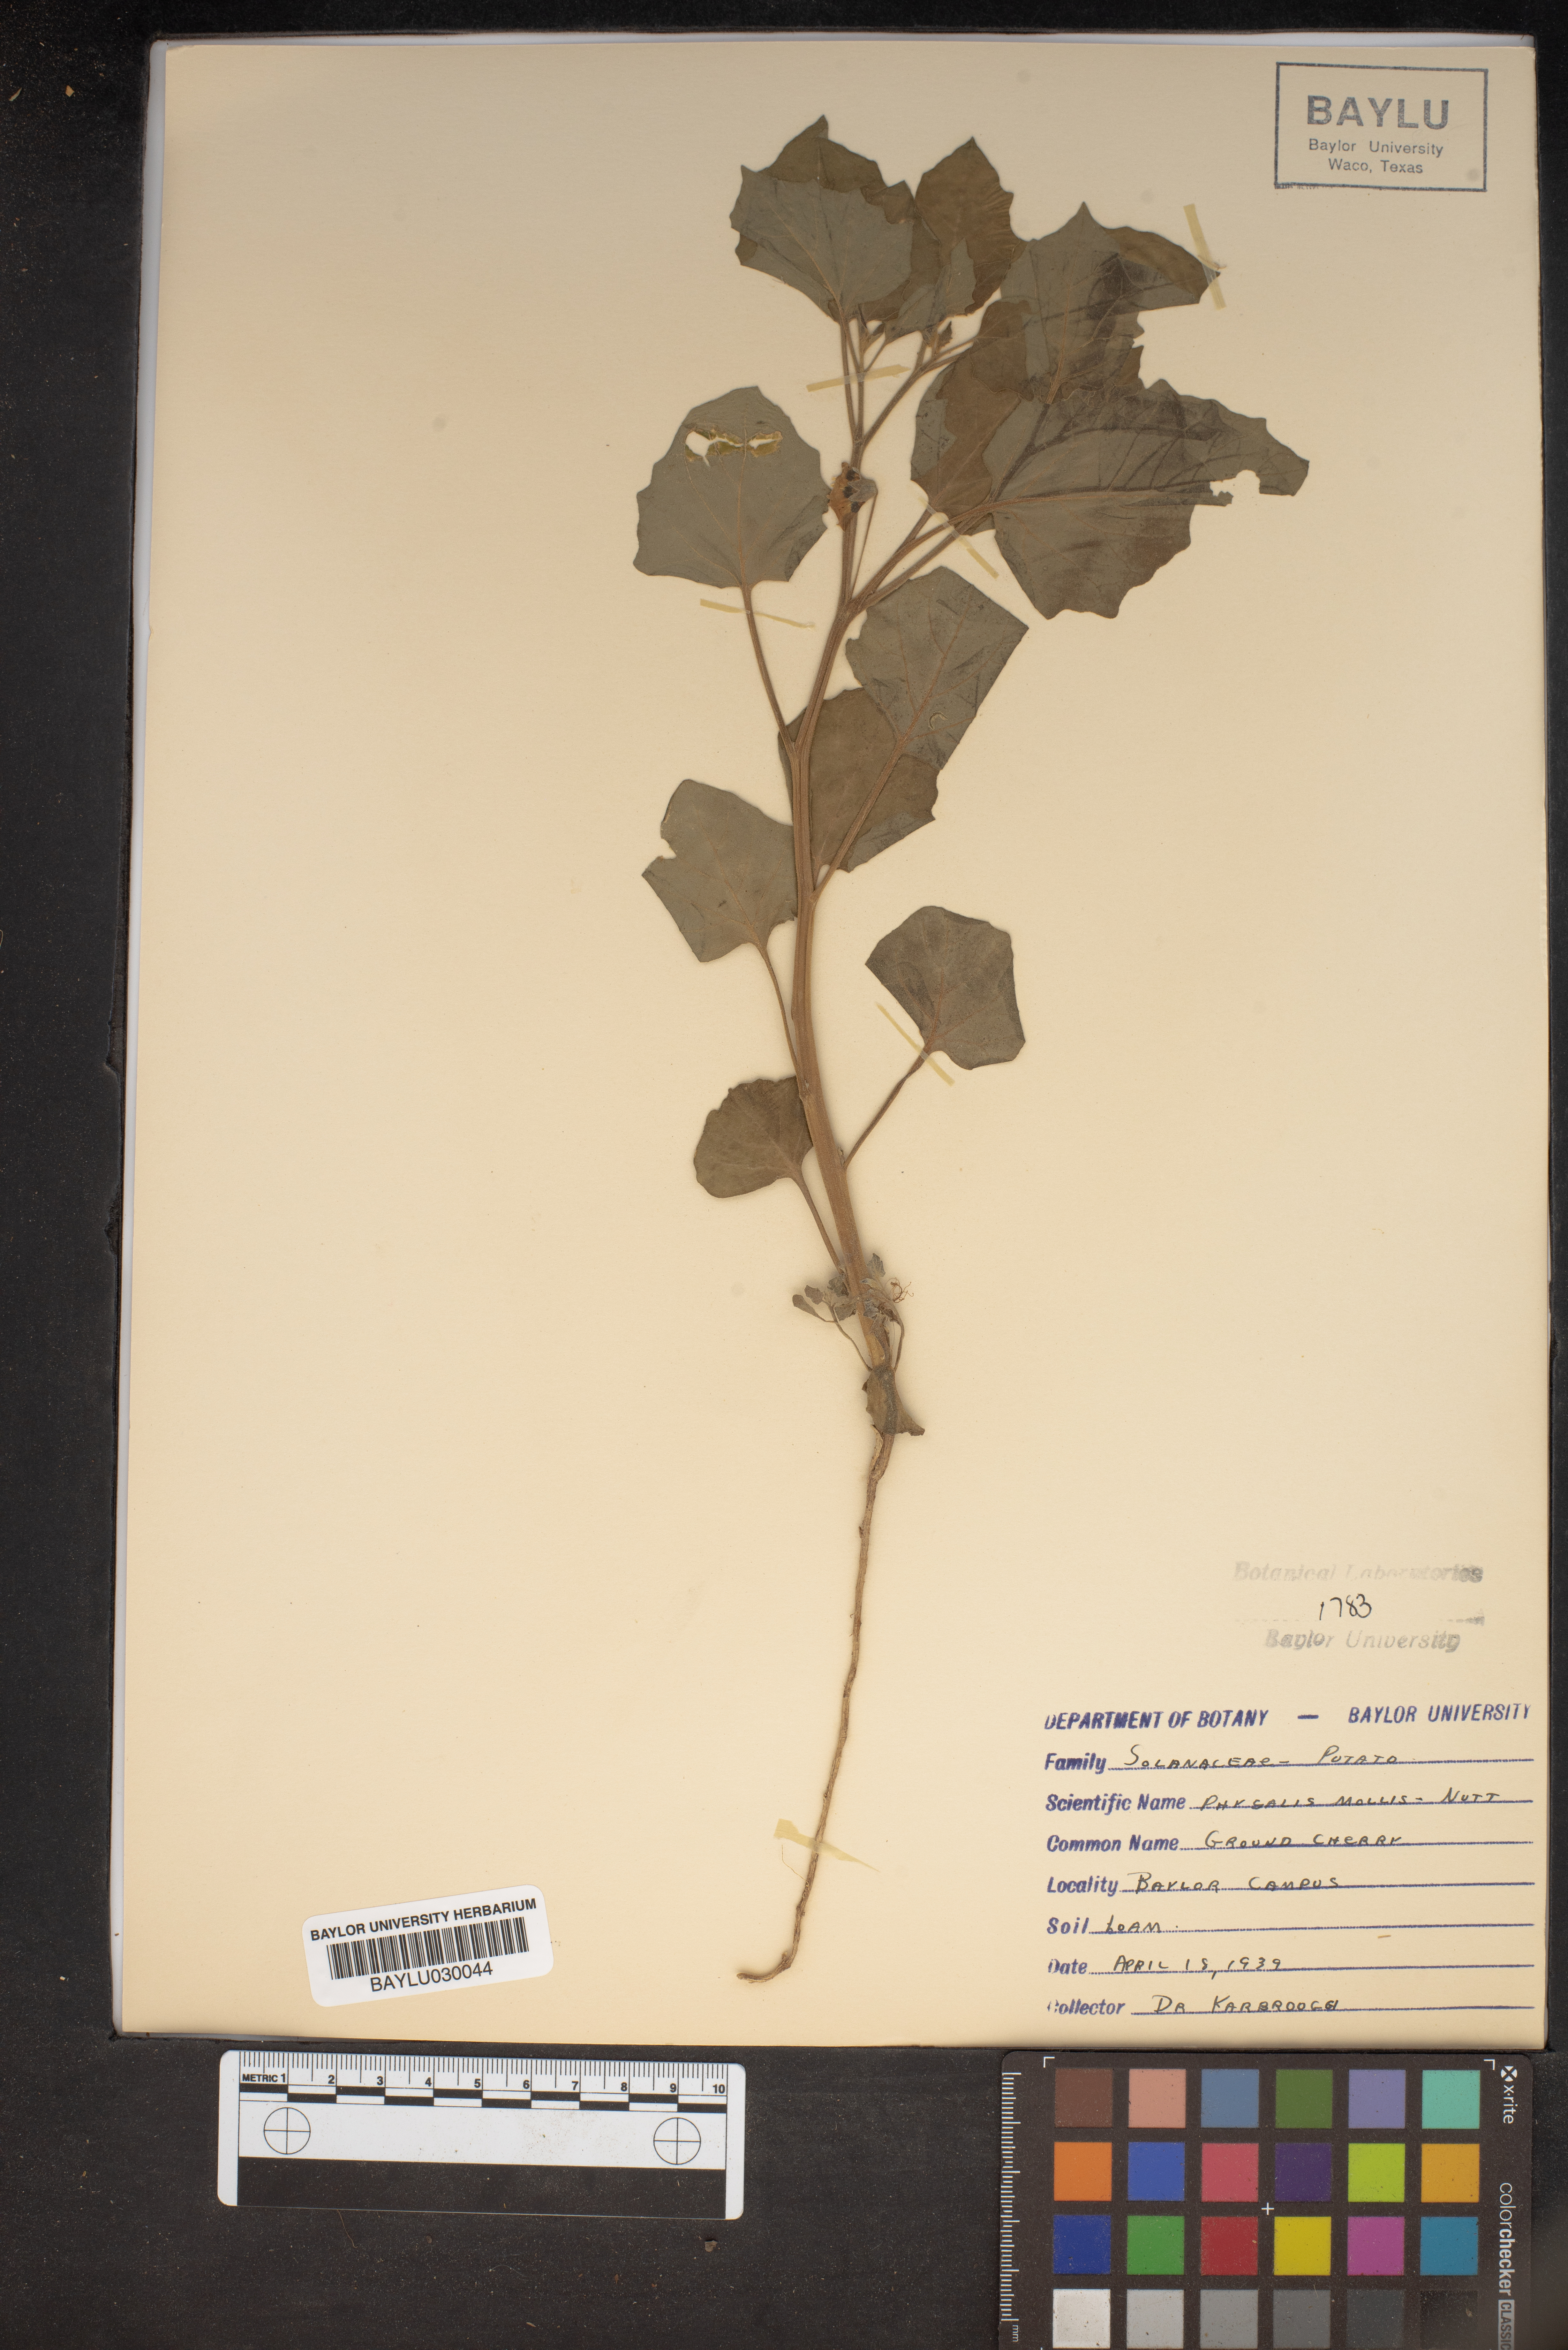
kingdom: Plantae
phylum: Tracheophyta
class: Magnoliopsida
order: Solanales
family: Solanaceae
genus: Physalis
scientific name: Physalis mollis
